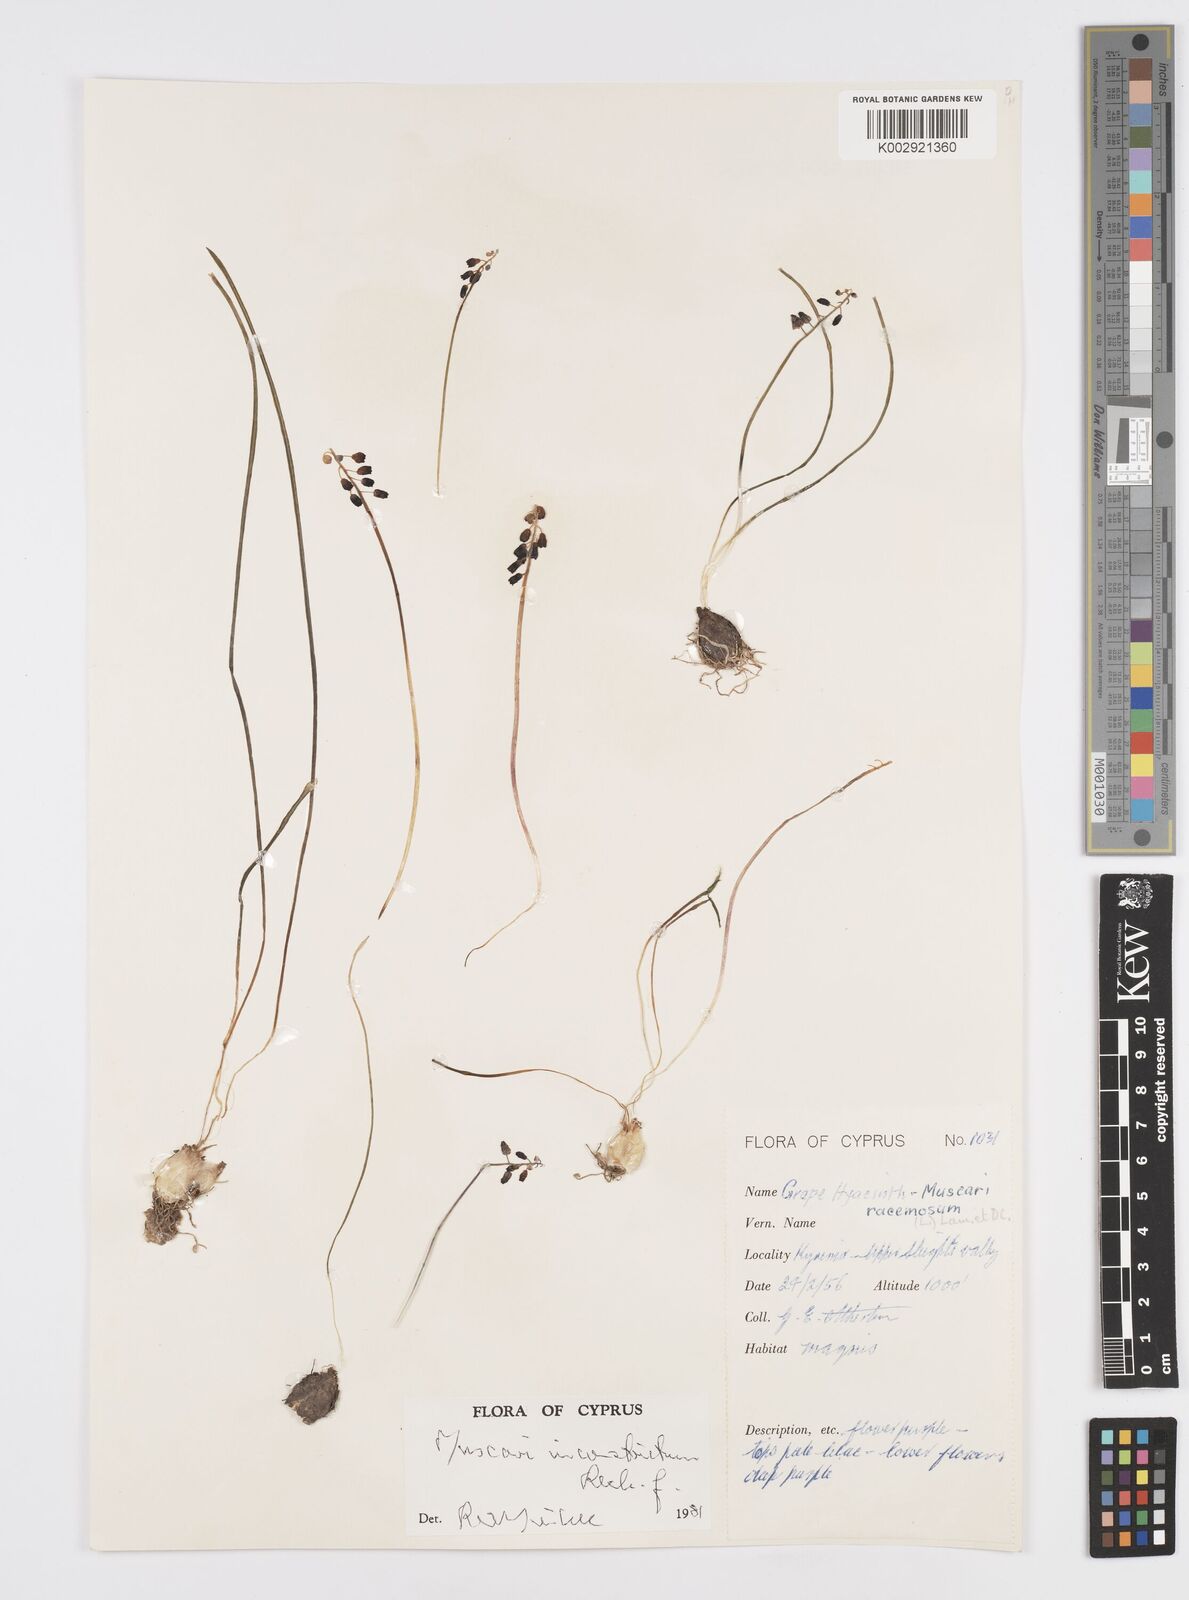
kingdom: Plantae
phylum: Tracheophyta
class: Liliopsida
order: Asparagales
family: Asparagaceae
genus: Muscari
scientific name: Muscari
